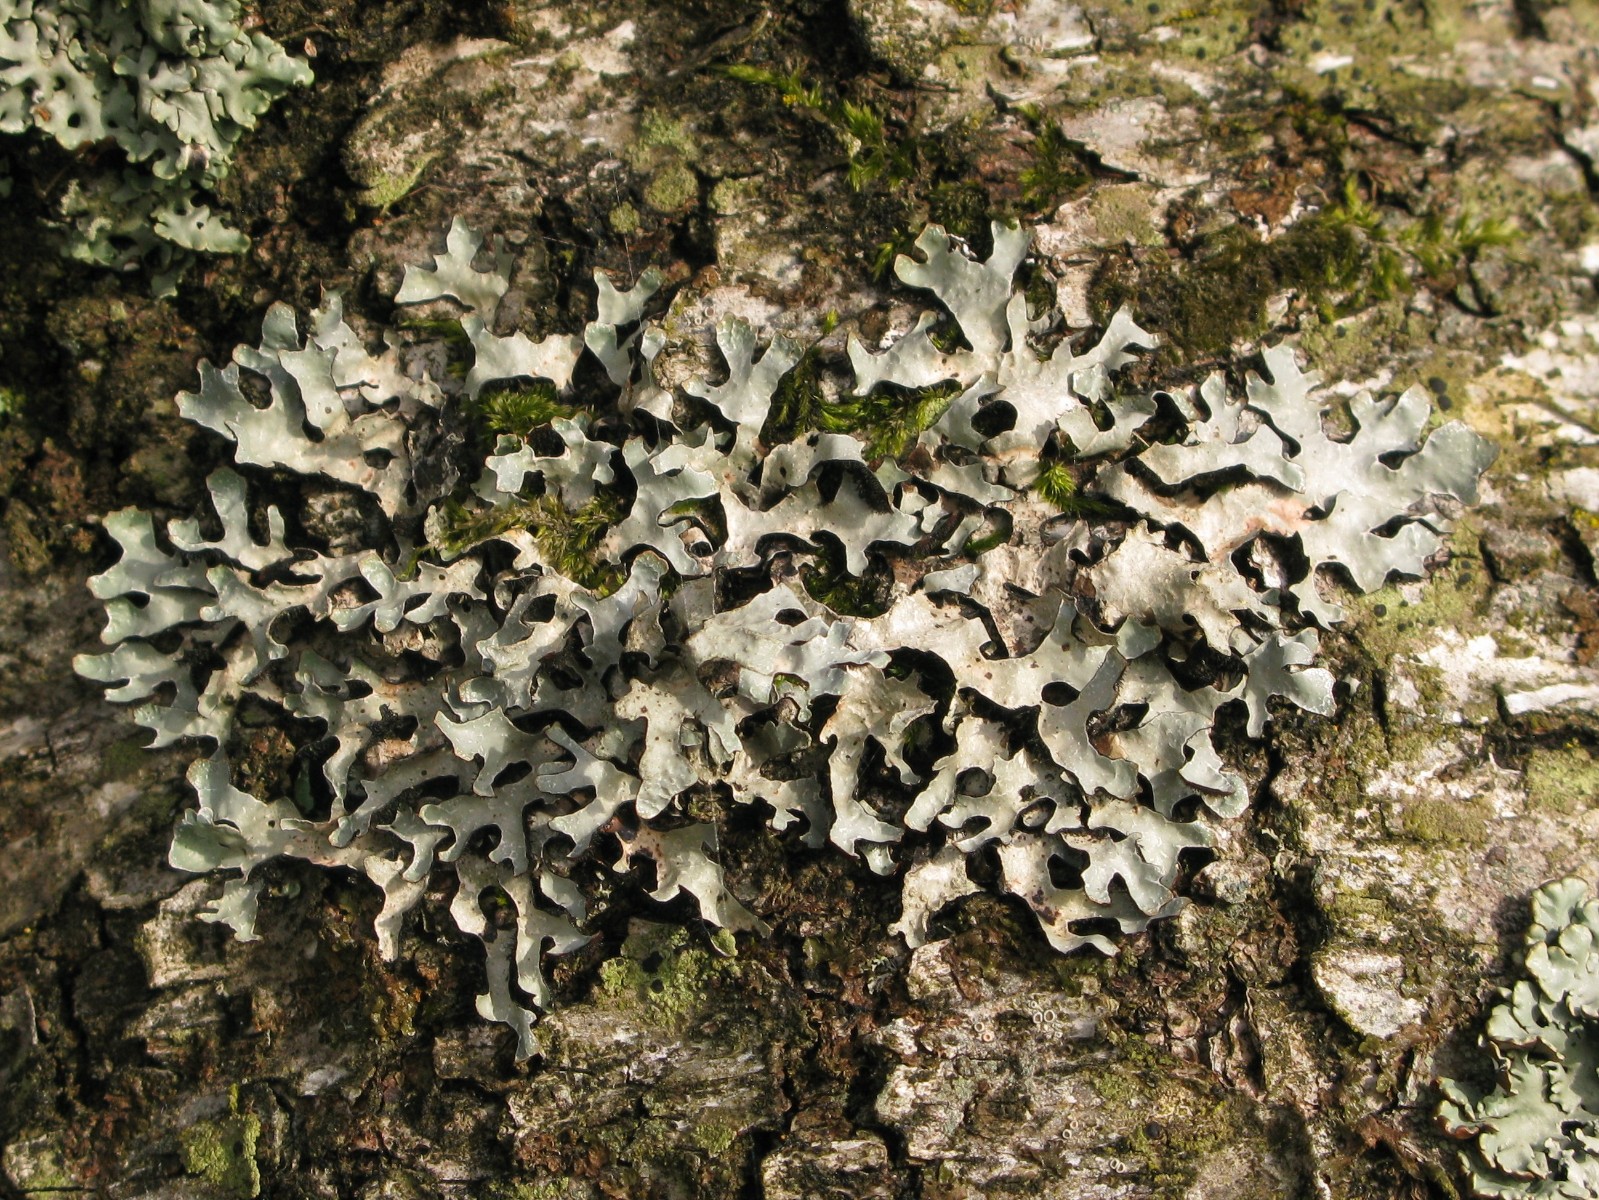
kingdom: Fungi
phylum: Ascomycota
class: Lecanoromycetes
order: Lecanorales
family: Parmeliaceae
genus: Parmelia
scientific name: Parmelia sulcata
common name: rynket skållav
